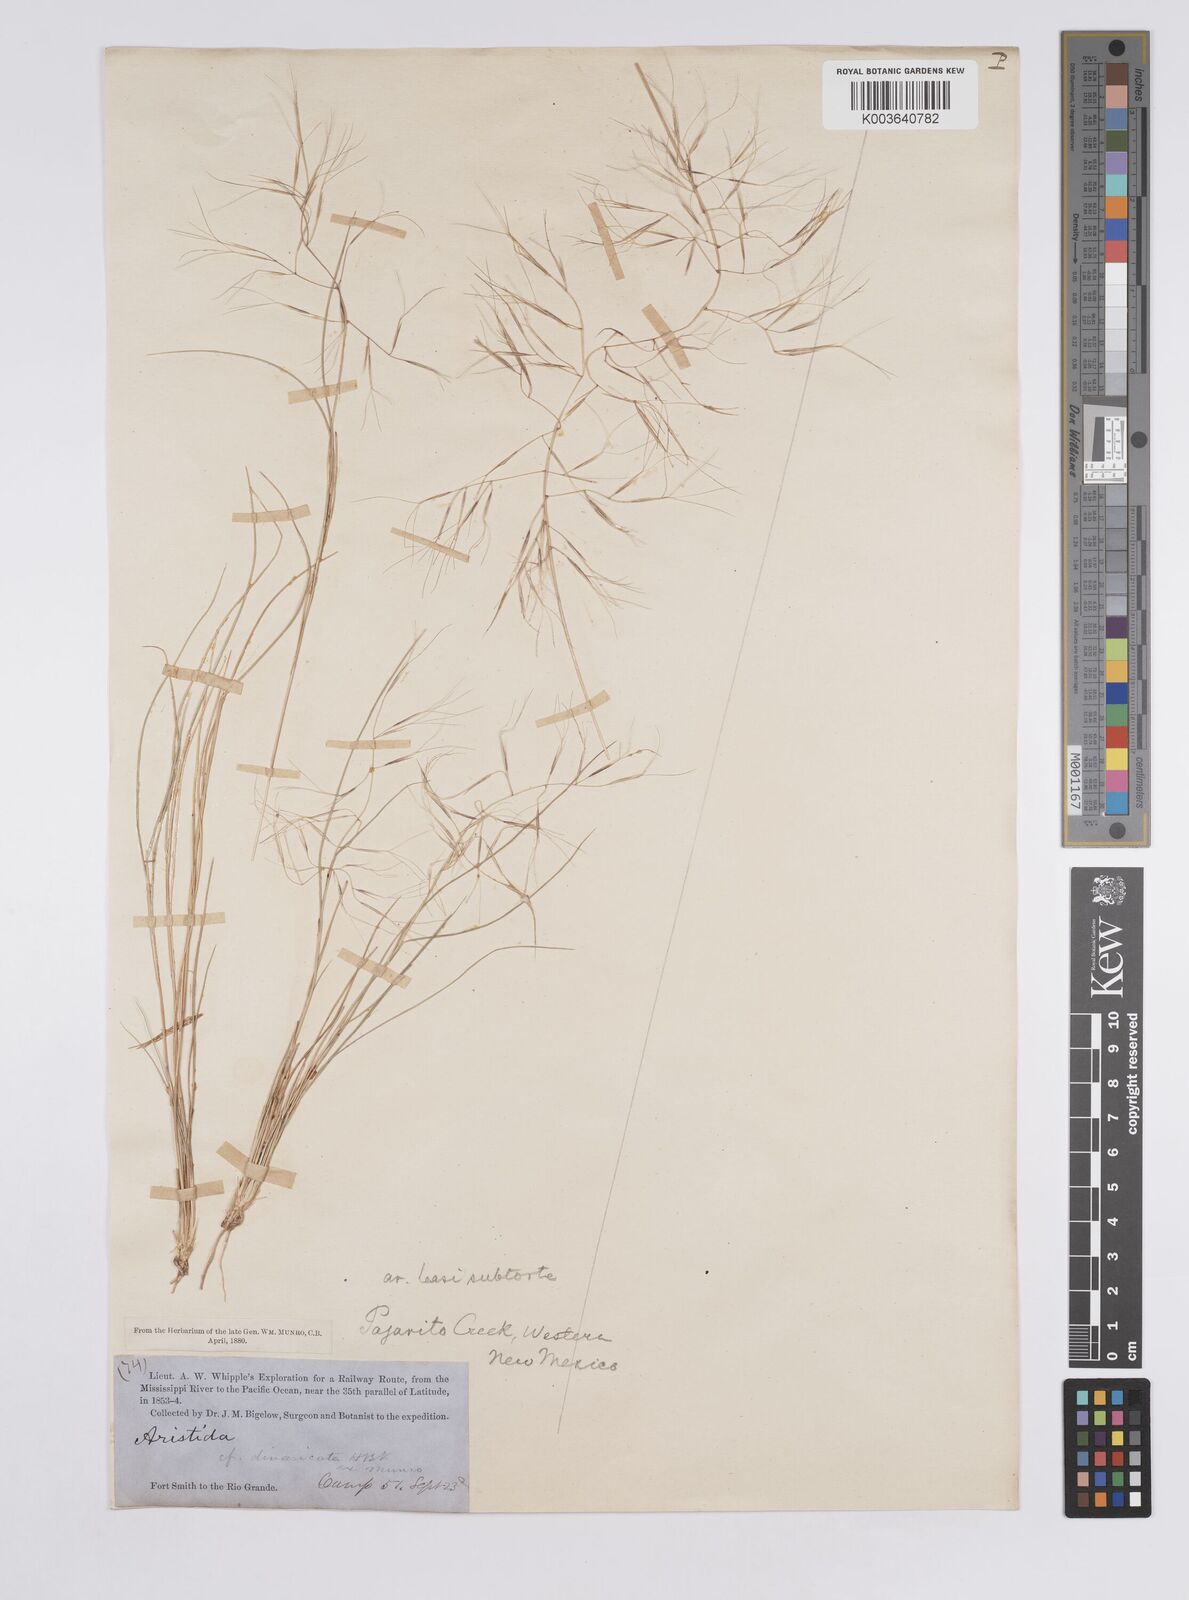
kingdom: Plantae
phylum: Tracheophyta
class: Liliopsida
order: Poales
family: Poaceae
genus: Aristida
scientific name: Aristida havardii
